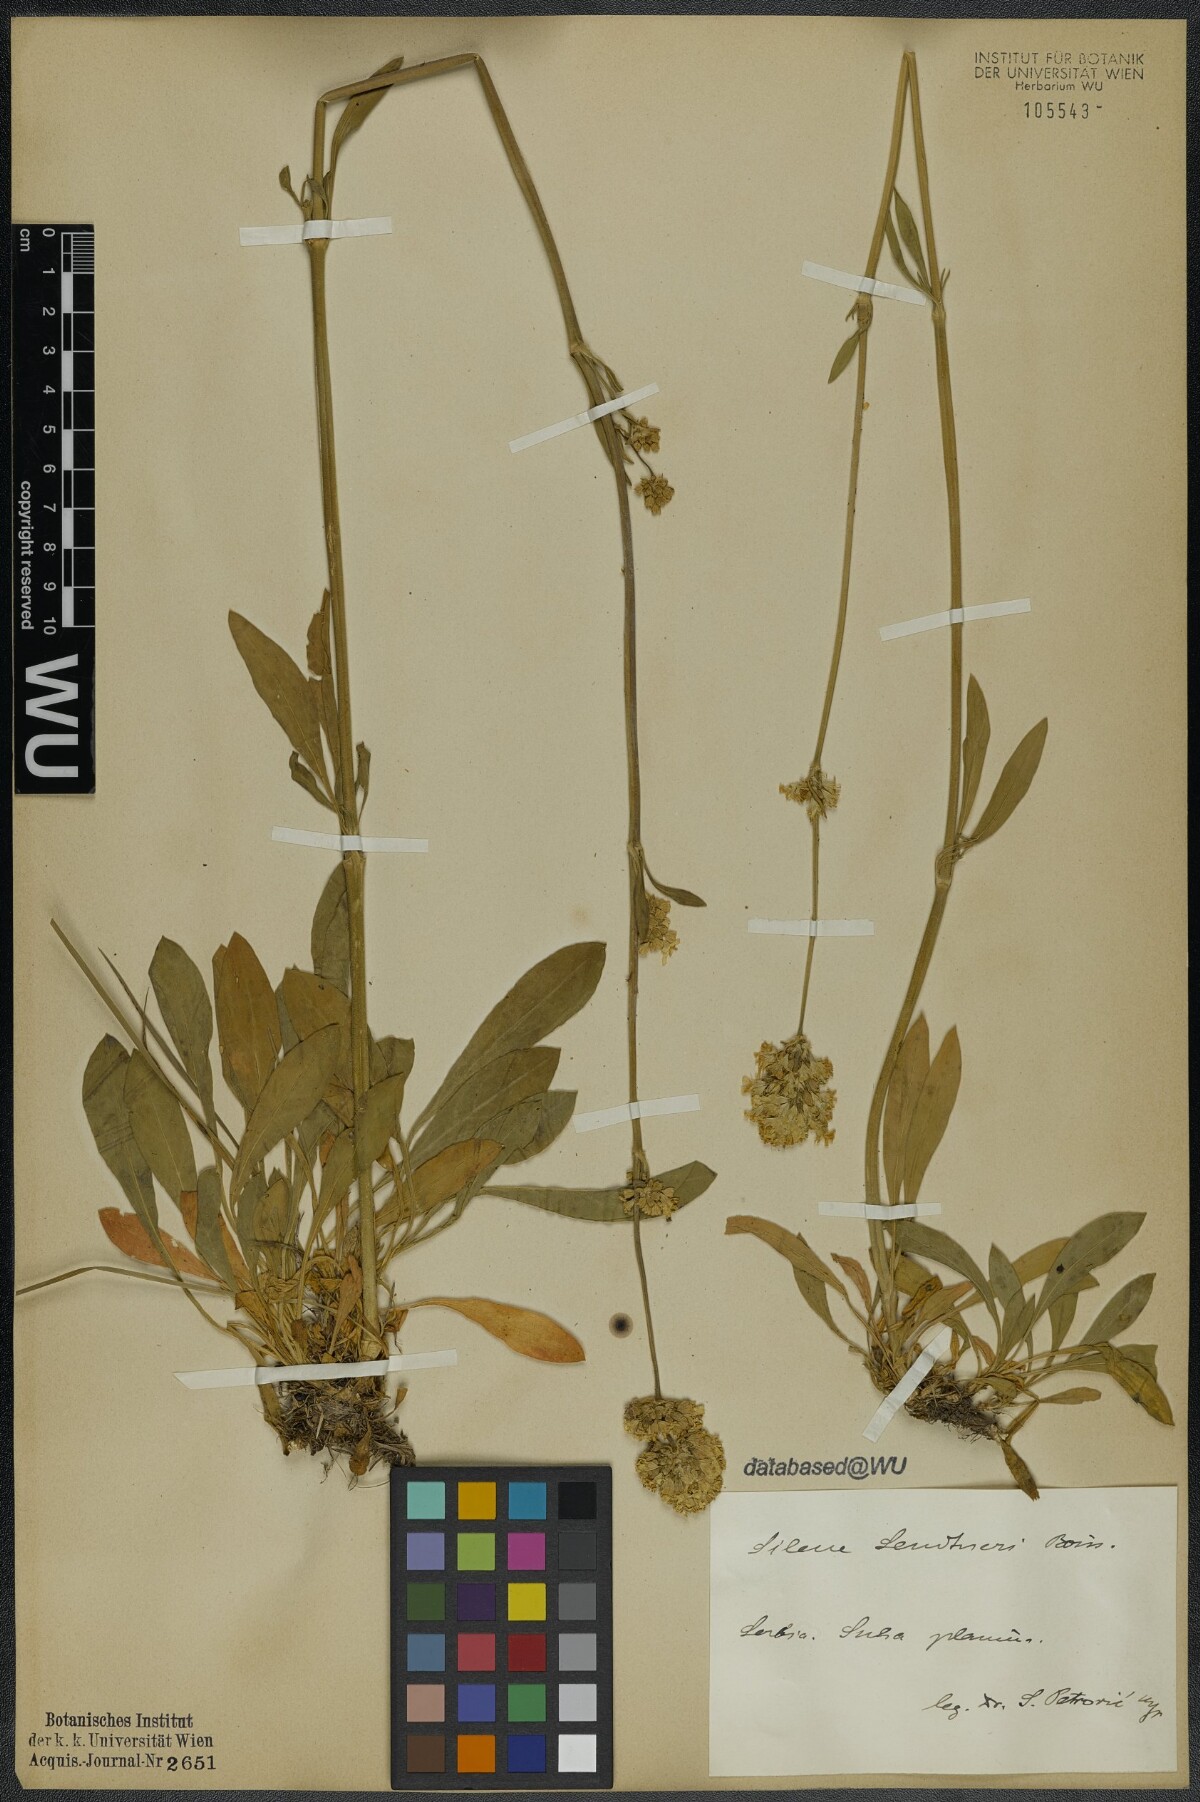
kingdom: Plantae
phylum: Tracheophyta
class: Magnoliopsida
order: Caryophyllales
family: Caryophyllaceae
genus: Silene
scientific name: Silene sendtneri
